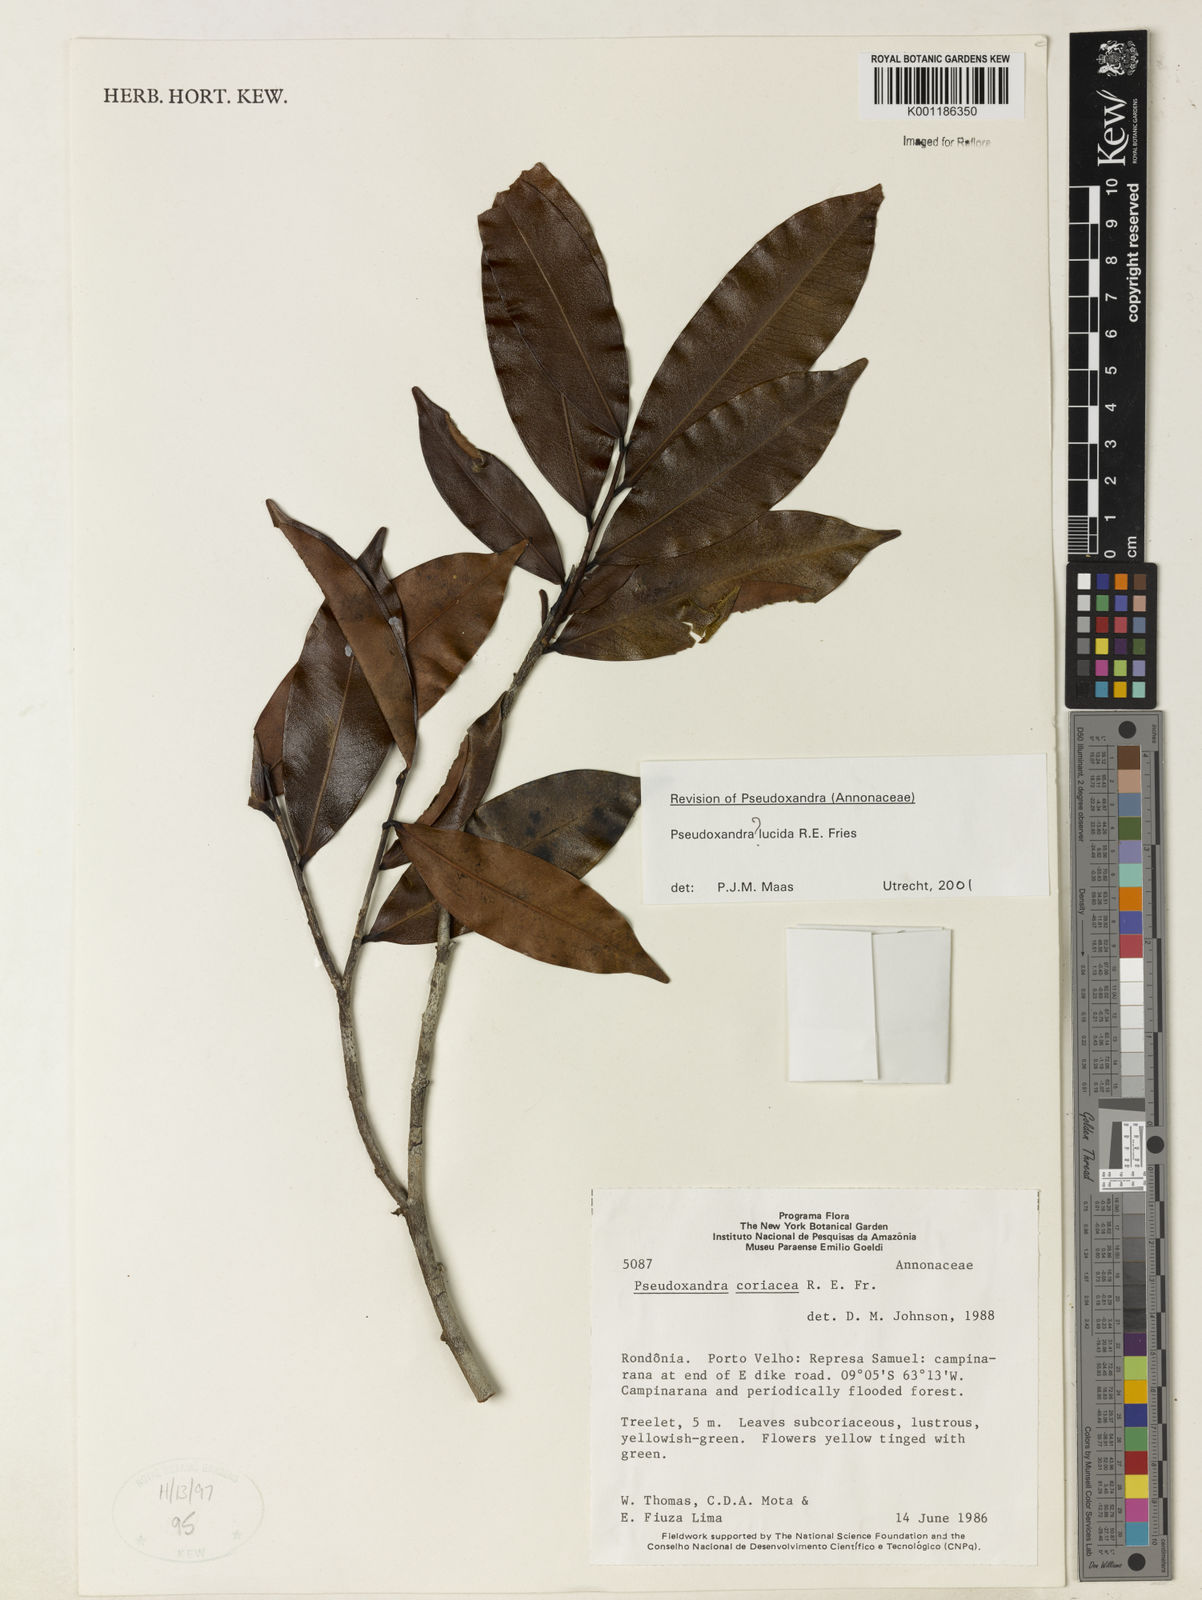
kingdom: Plantae
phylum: Tracheophyta
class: Magnoliopsida
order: Magnoliales
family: Annonaceae
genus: Pseudoxandra
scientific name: Pseudoxandra lucida
